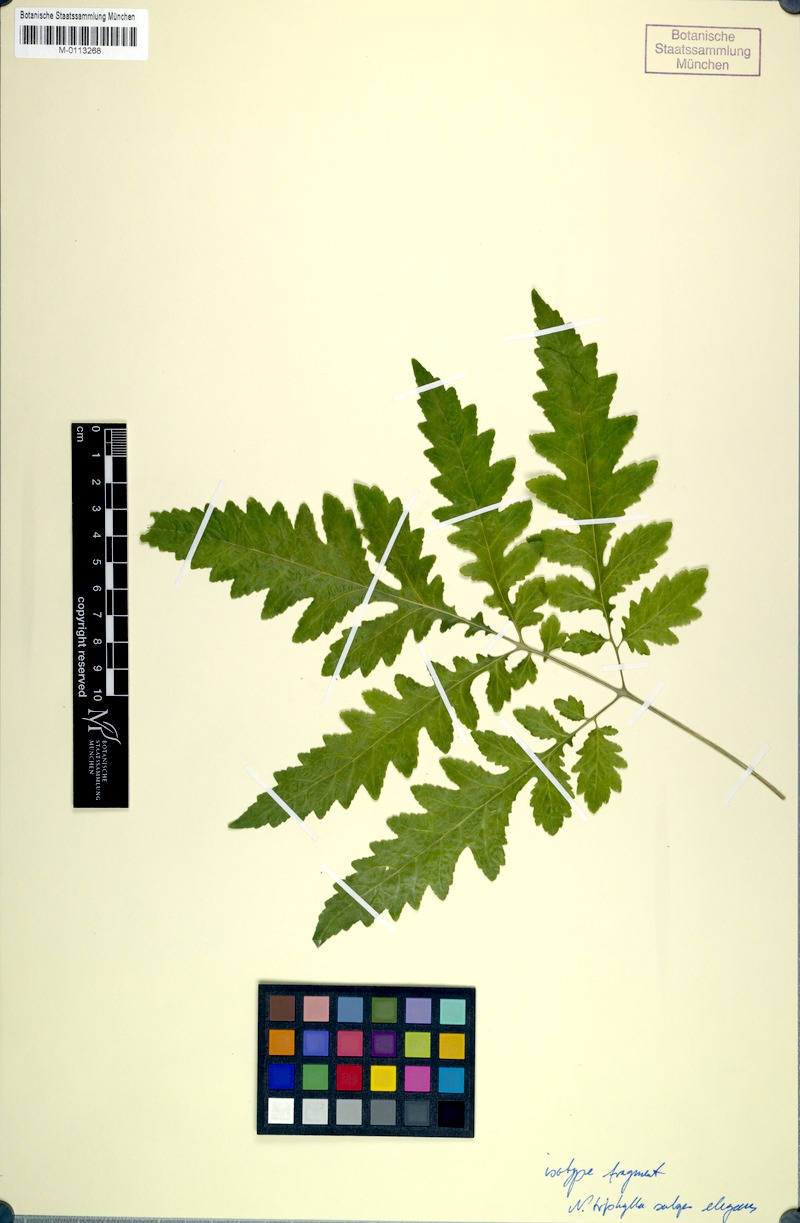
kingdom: Plantae
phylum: Tracheophyta
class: Magnoliopsida
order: Cornales
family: Loasaceae
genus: Nasa
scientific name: Nasa triphylla
